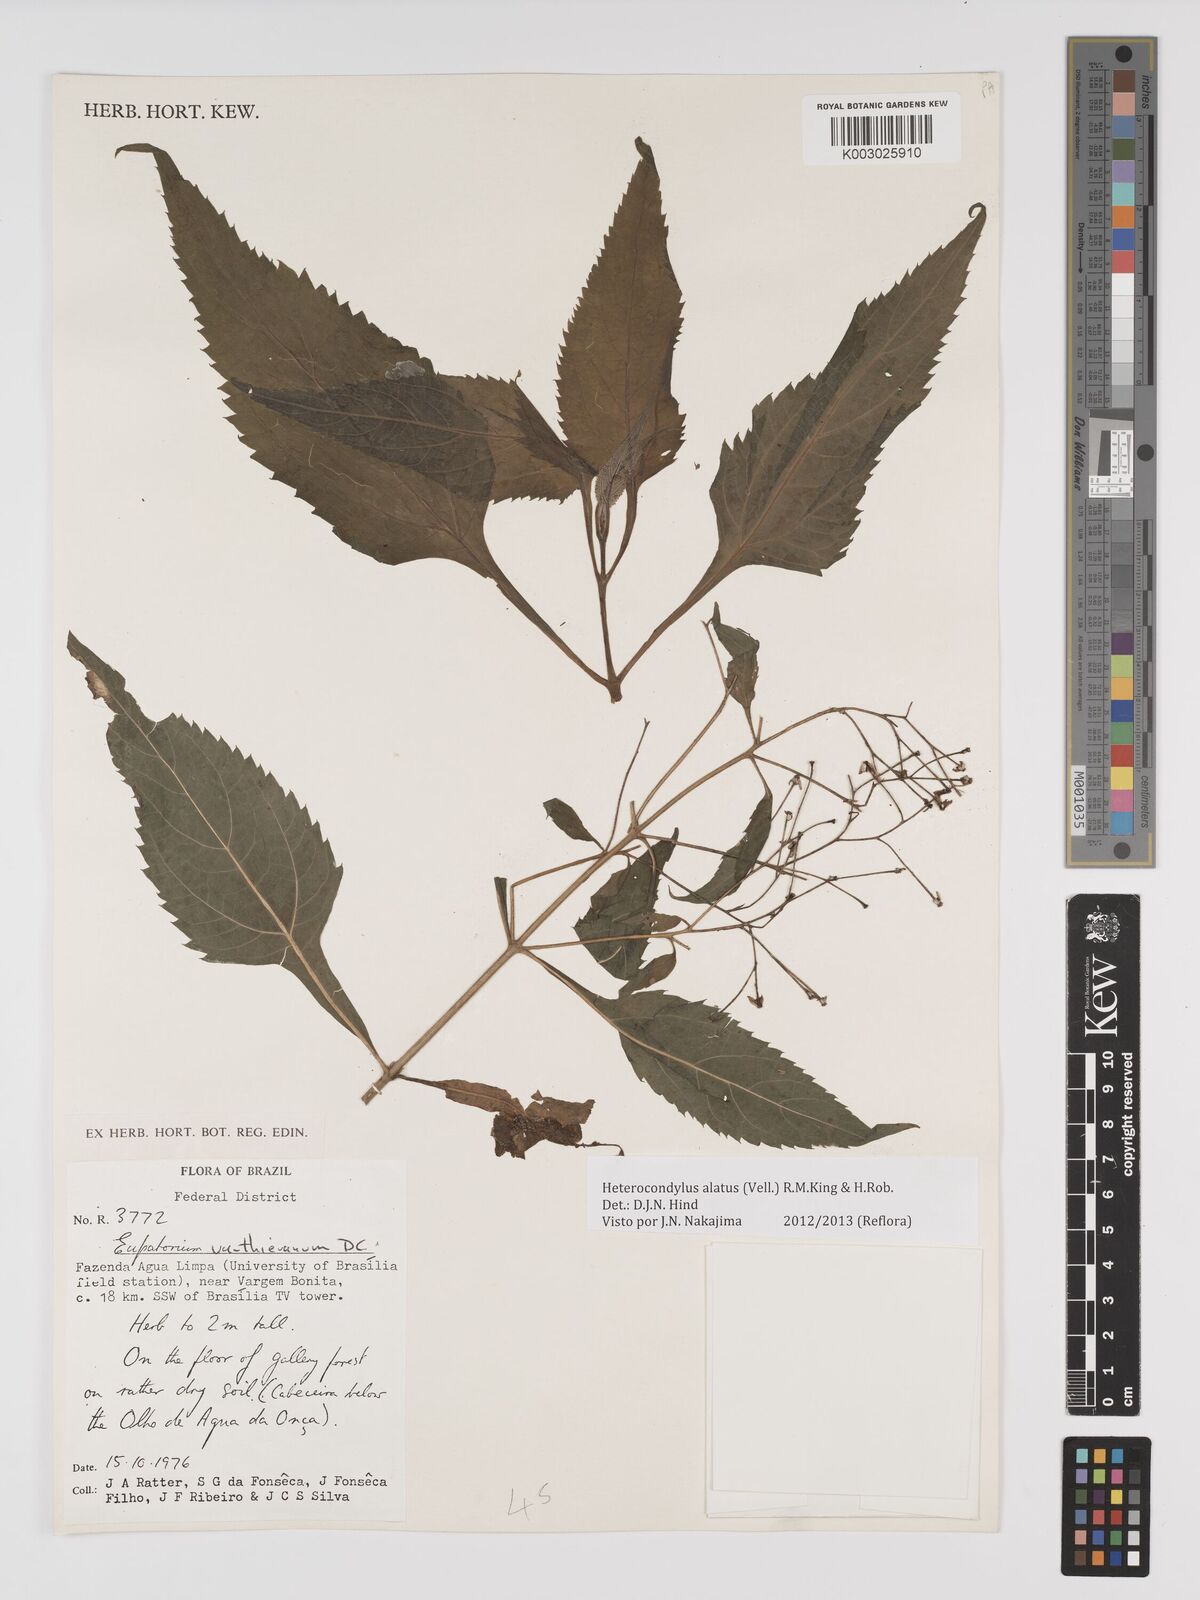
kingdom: Plantae
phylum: Tracheophyta
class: Magnoliopsida
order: Asterales
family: Asteraceae
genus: Heterocondylus
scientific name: Heterocondylus alatus
